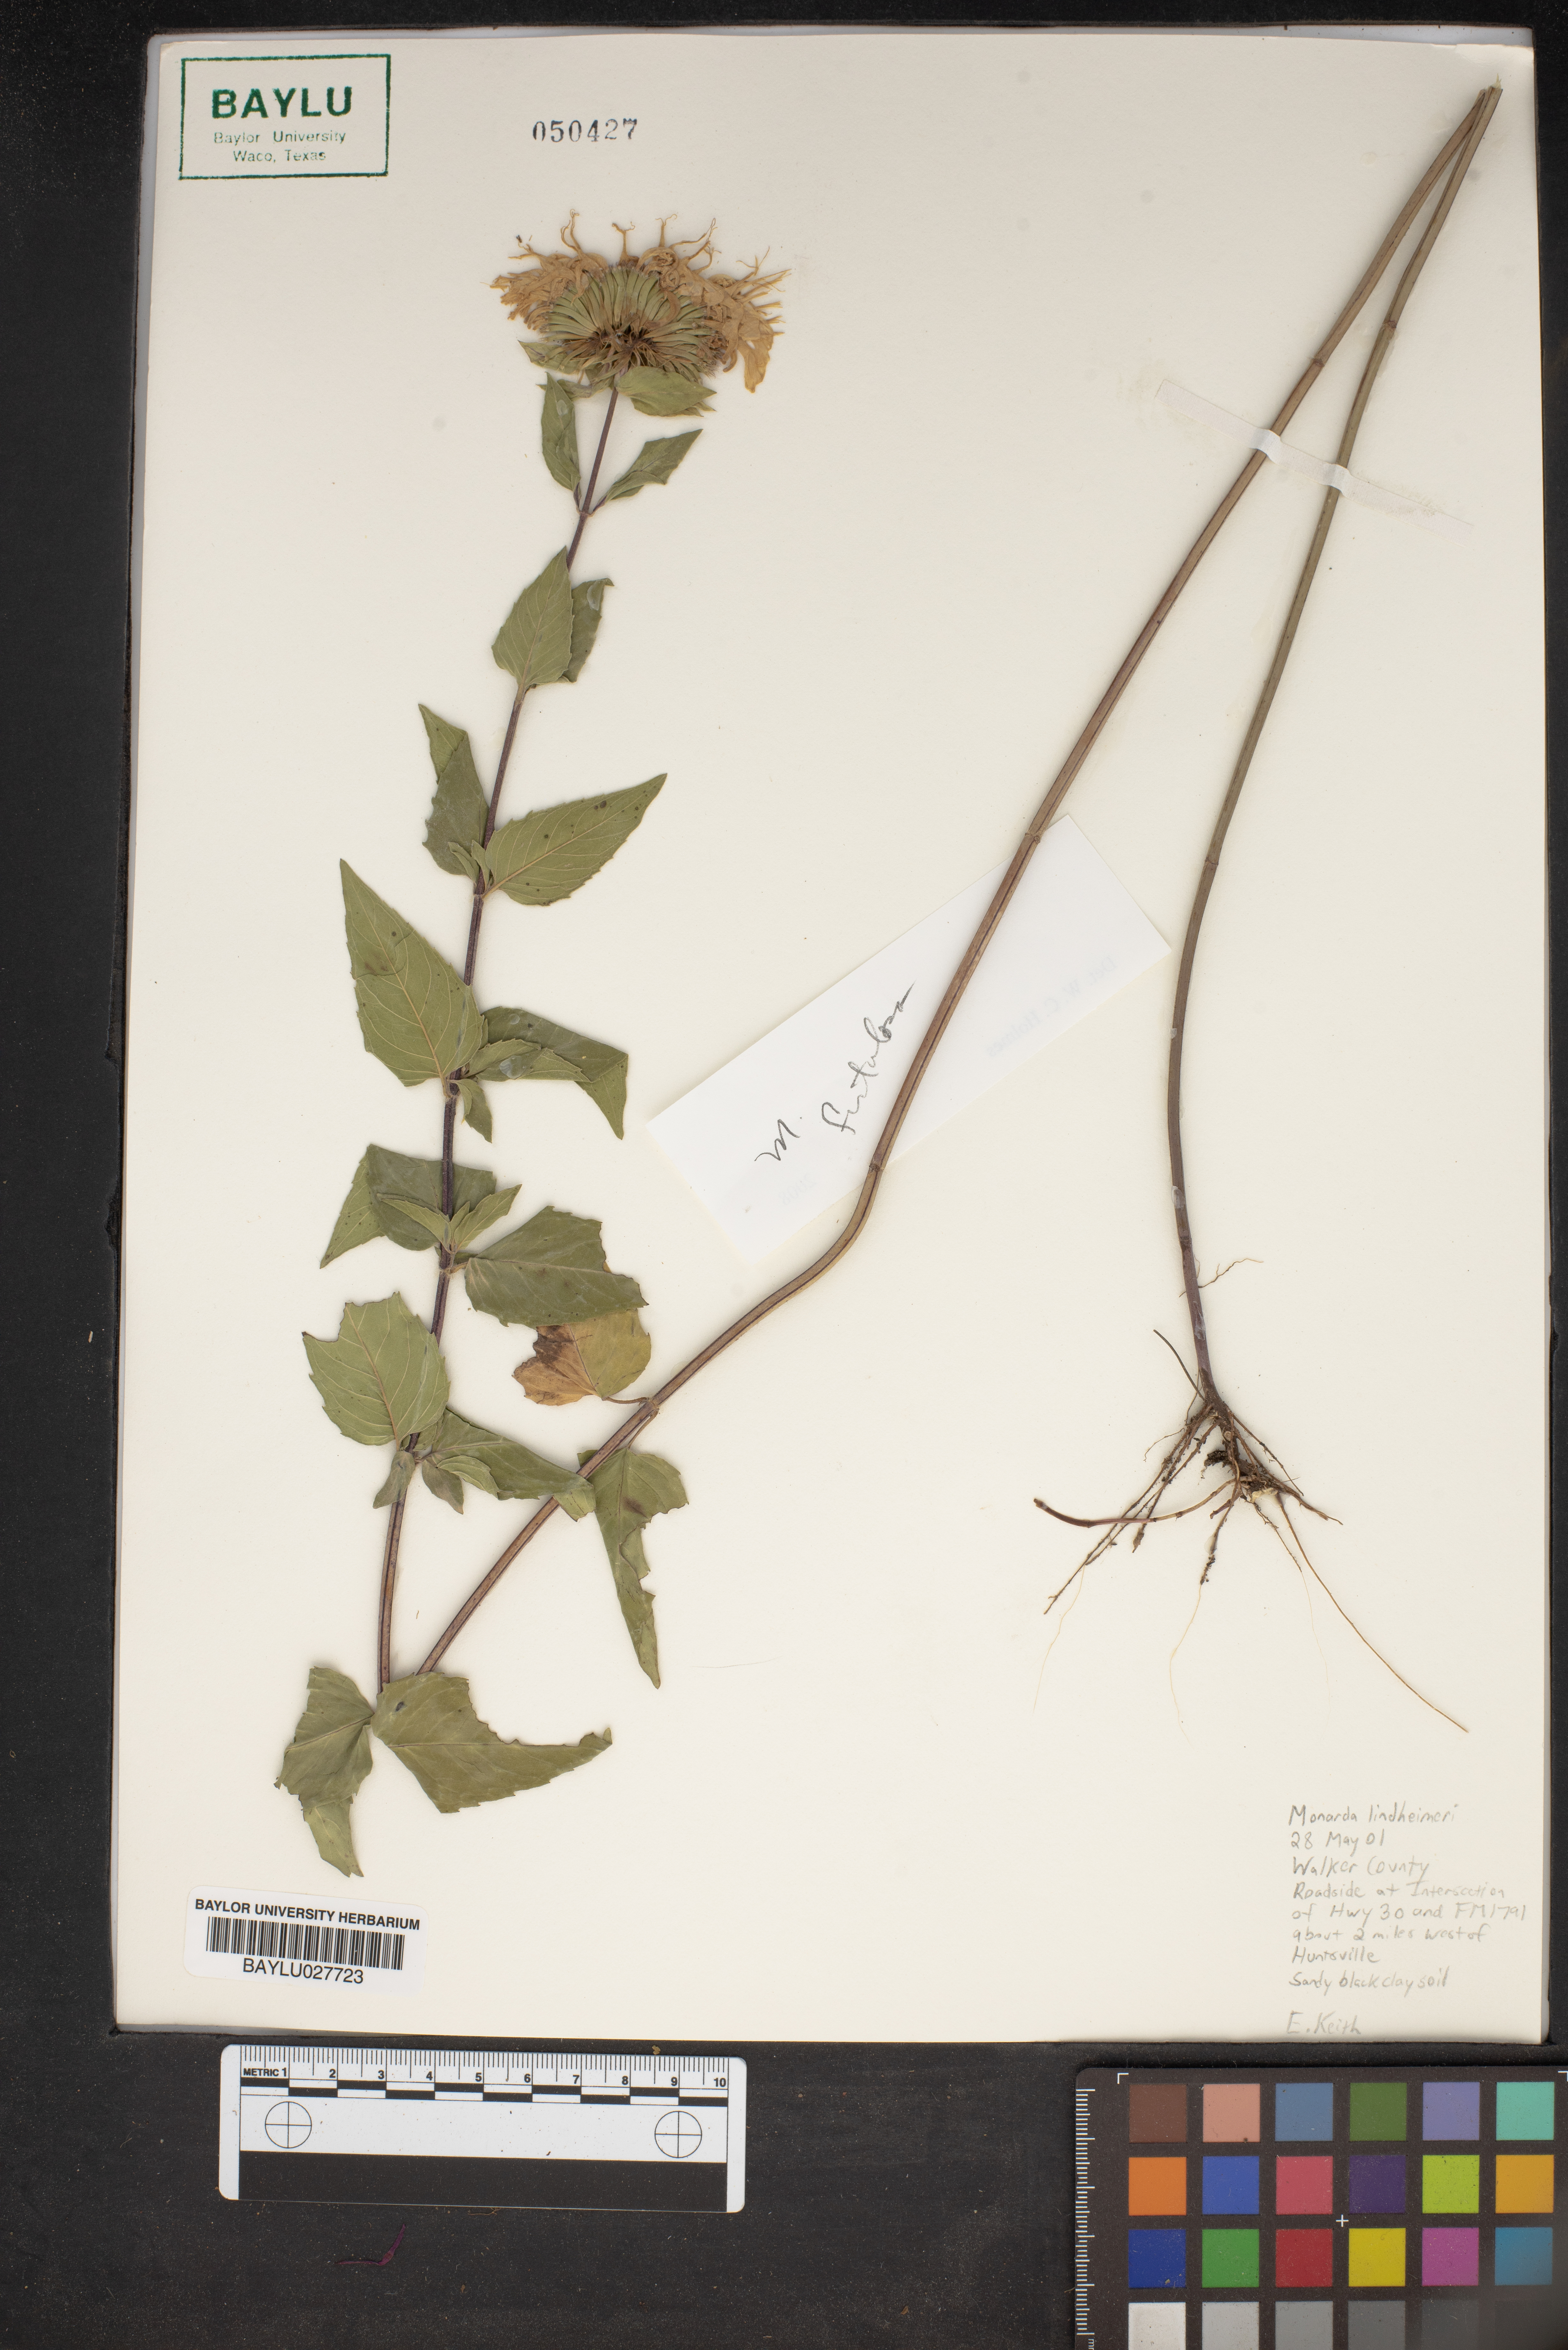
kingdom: Plantae
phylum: Tracheophyta
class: Magnoliopsida
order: Lamiales
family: Lamiaceae
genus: Monarda
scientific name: Monarda lindheimeri
